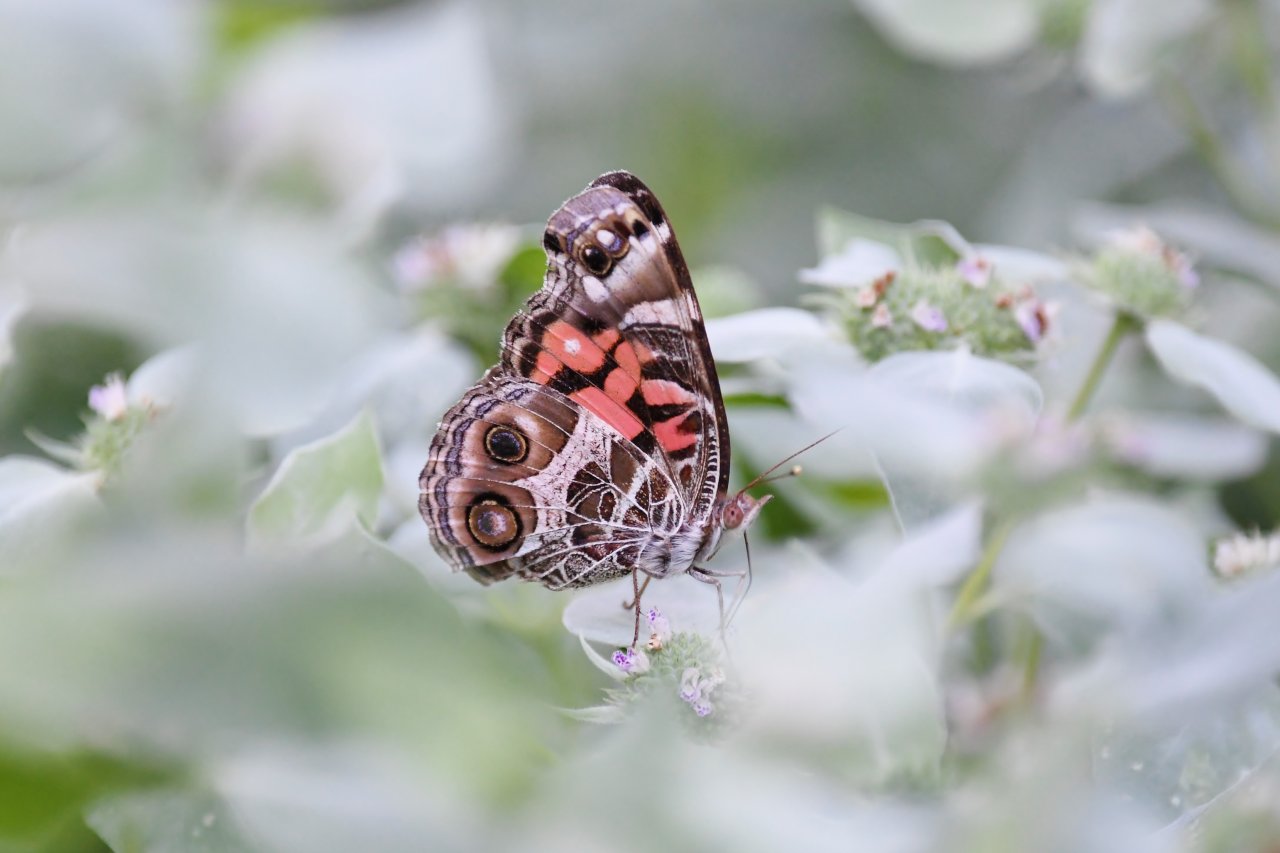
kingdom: Animalia
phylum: Arthropoda
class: Insecta
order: Lepidoptera
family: Nymphalidae
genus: Vanessa
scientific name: Vanessa virginiensis
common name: American Lady
